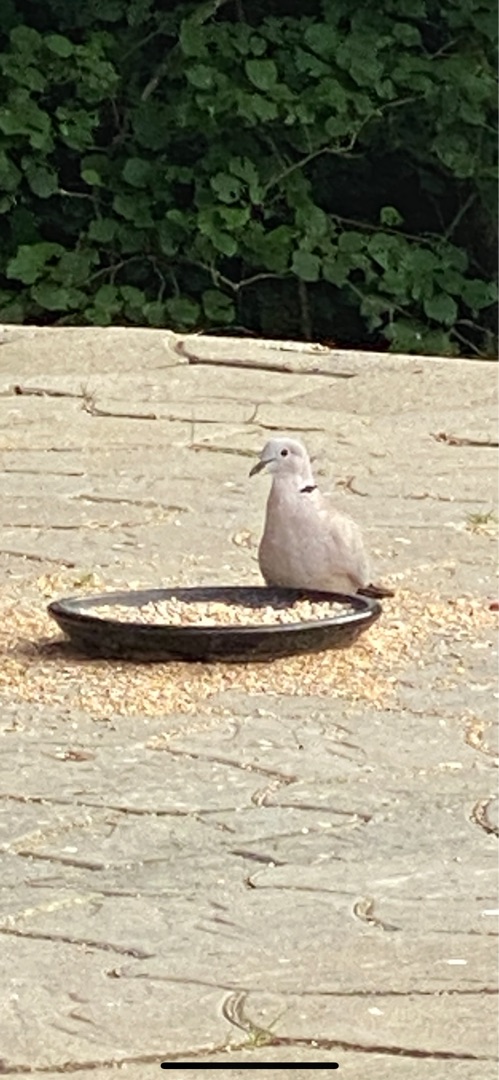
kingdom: Animalia
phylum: Chordata
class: Aves
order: Columbiformes
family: Columbidae
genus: Streptopelia
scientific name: Streptopelia decaocto
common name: Tyrkerdue
